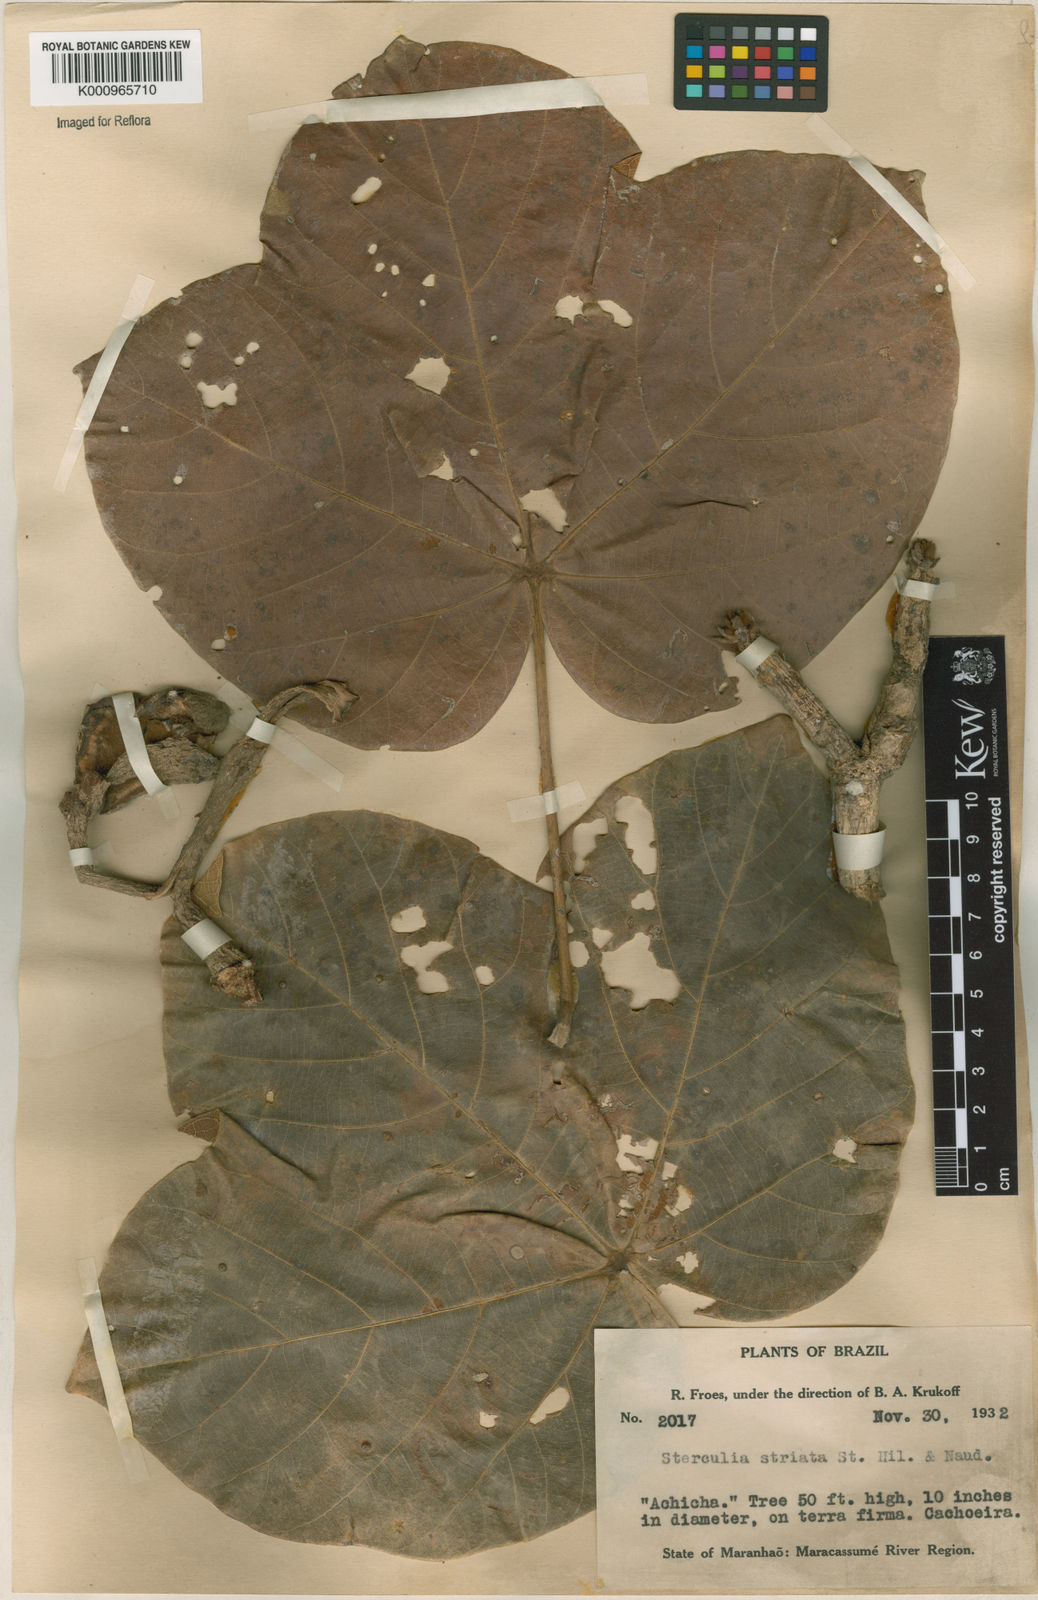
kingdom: Plantae
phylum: Tracheophyta
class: Magnoliopsida
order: Malvales
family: Malvaceae
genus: Sterculia
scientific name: Sterculia striata
